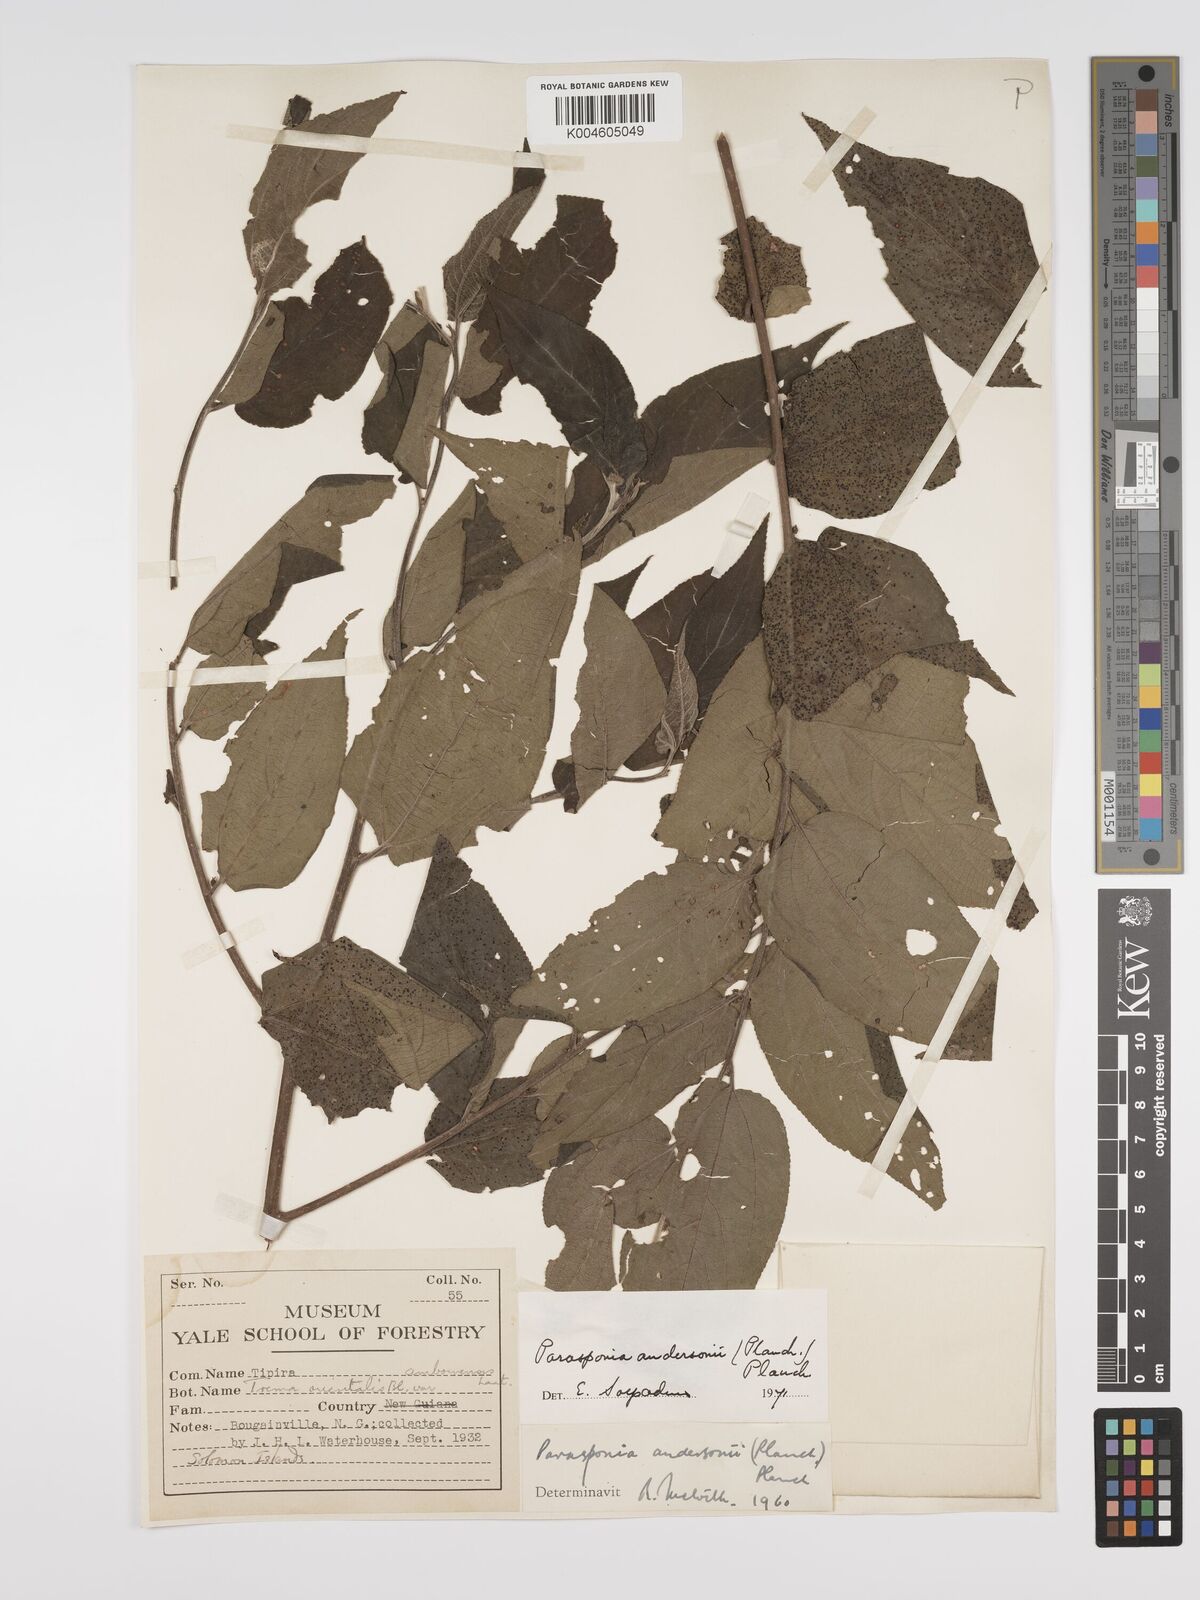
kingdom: Plantae
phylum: Tracheophyta
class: Magnoliopsida
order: Rosales
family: Cannabaceae
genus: Trema
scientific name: Trema andersonii
